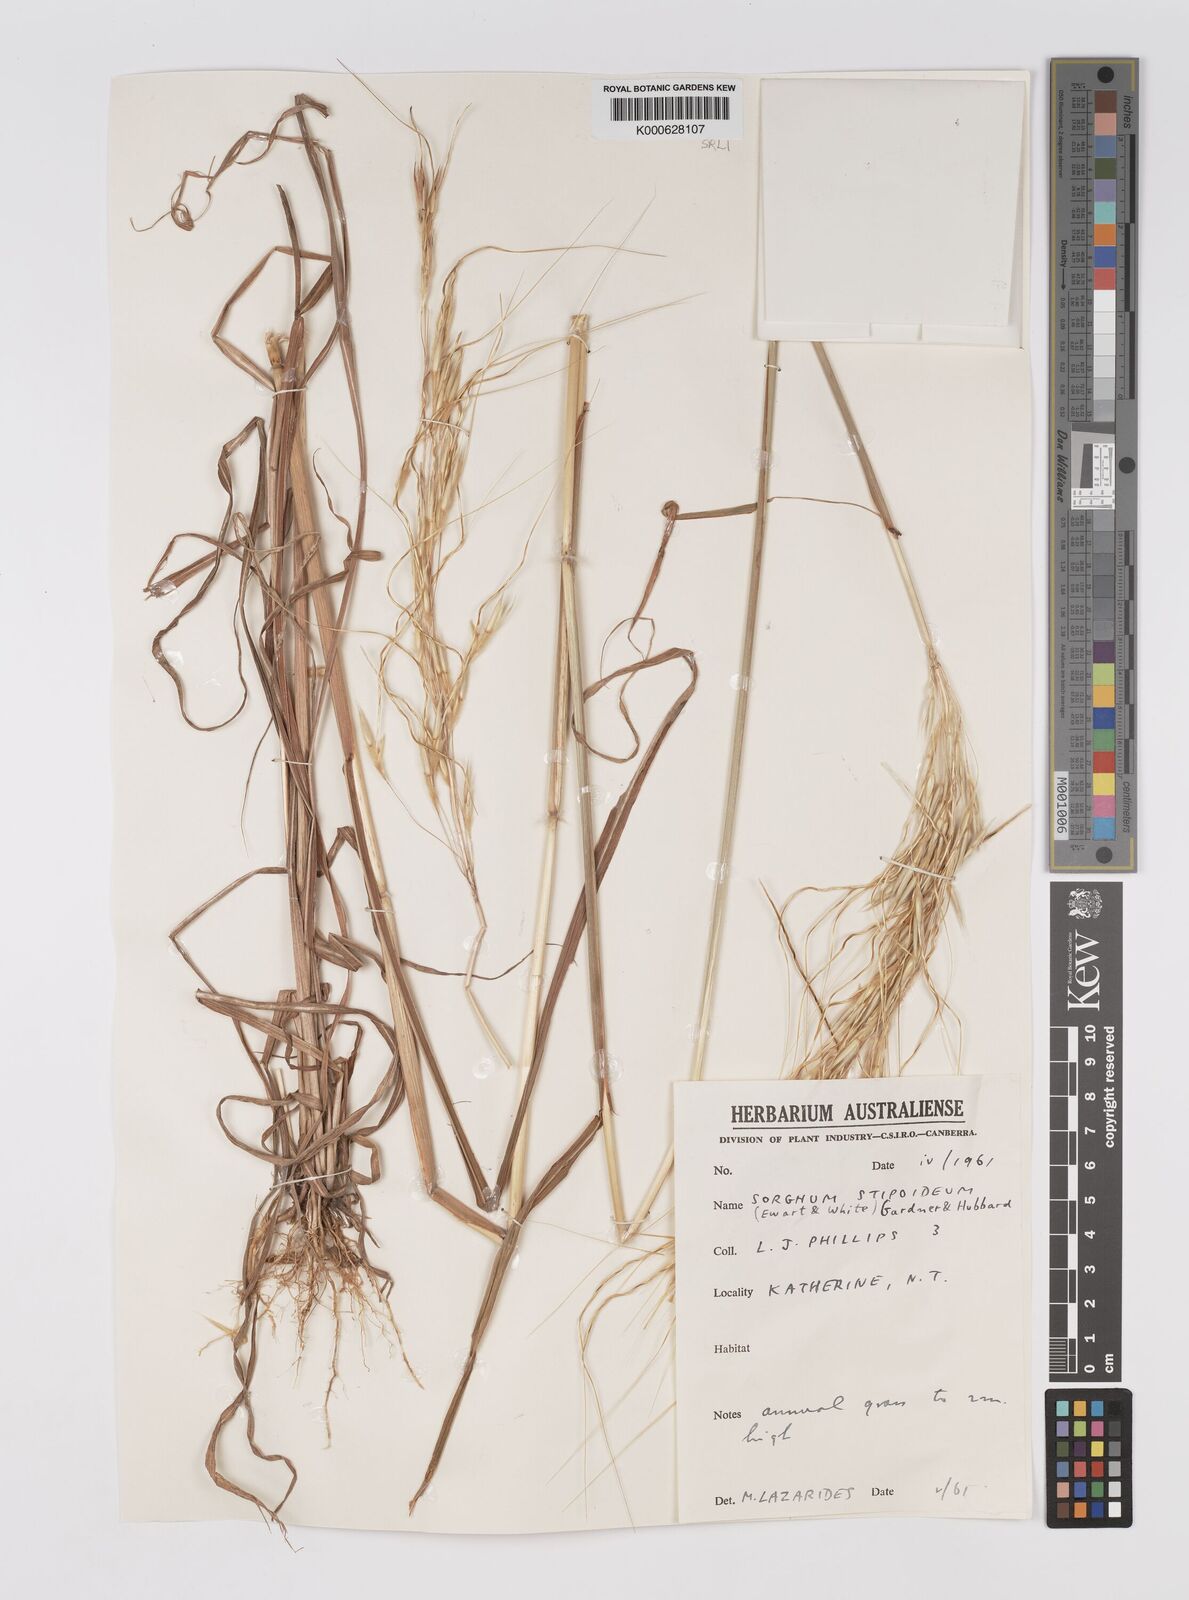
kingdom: Plantae
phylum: Tracheophyta
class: Liliopsida
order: Poales
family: Poaceae
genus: Sarga
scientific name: Sarga stipoidea
